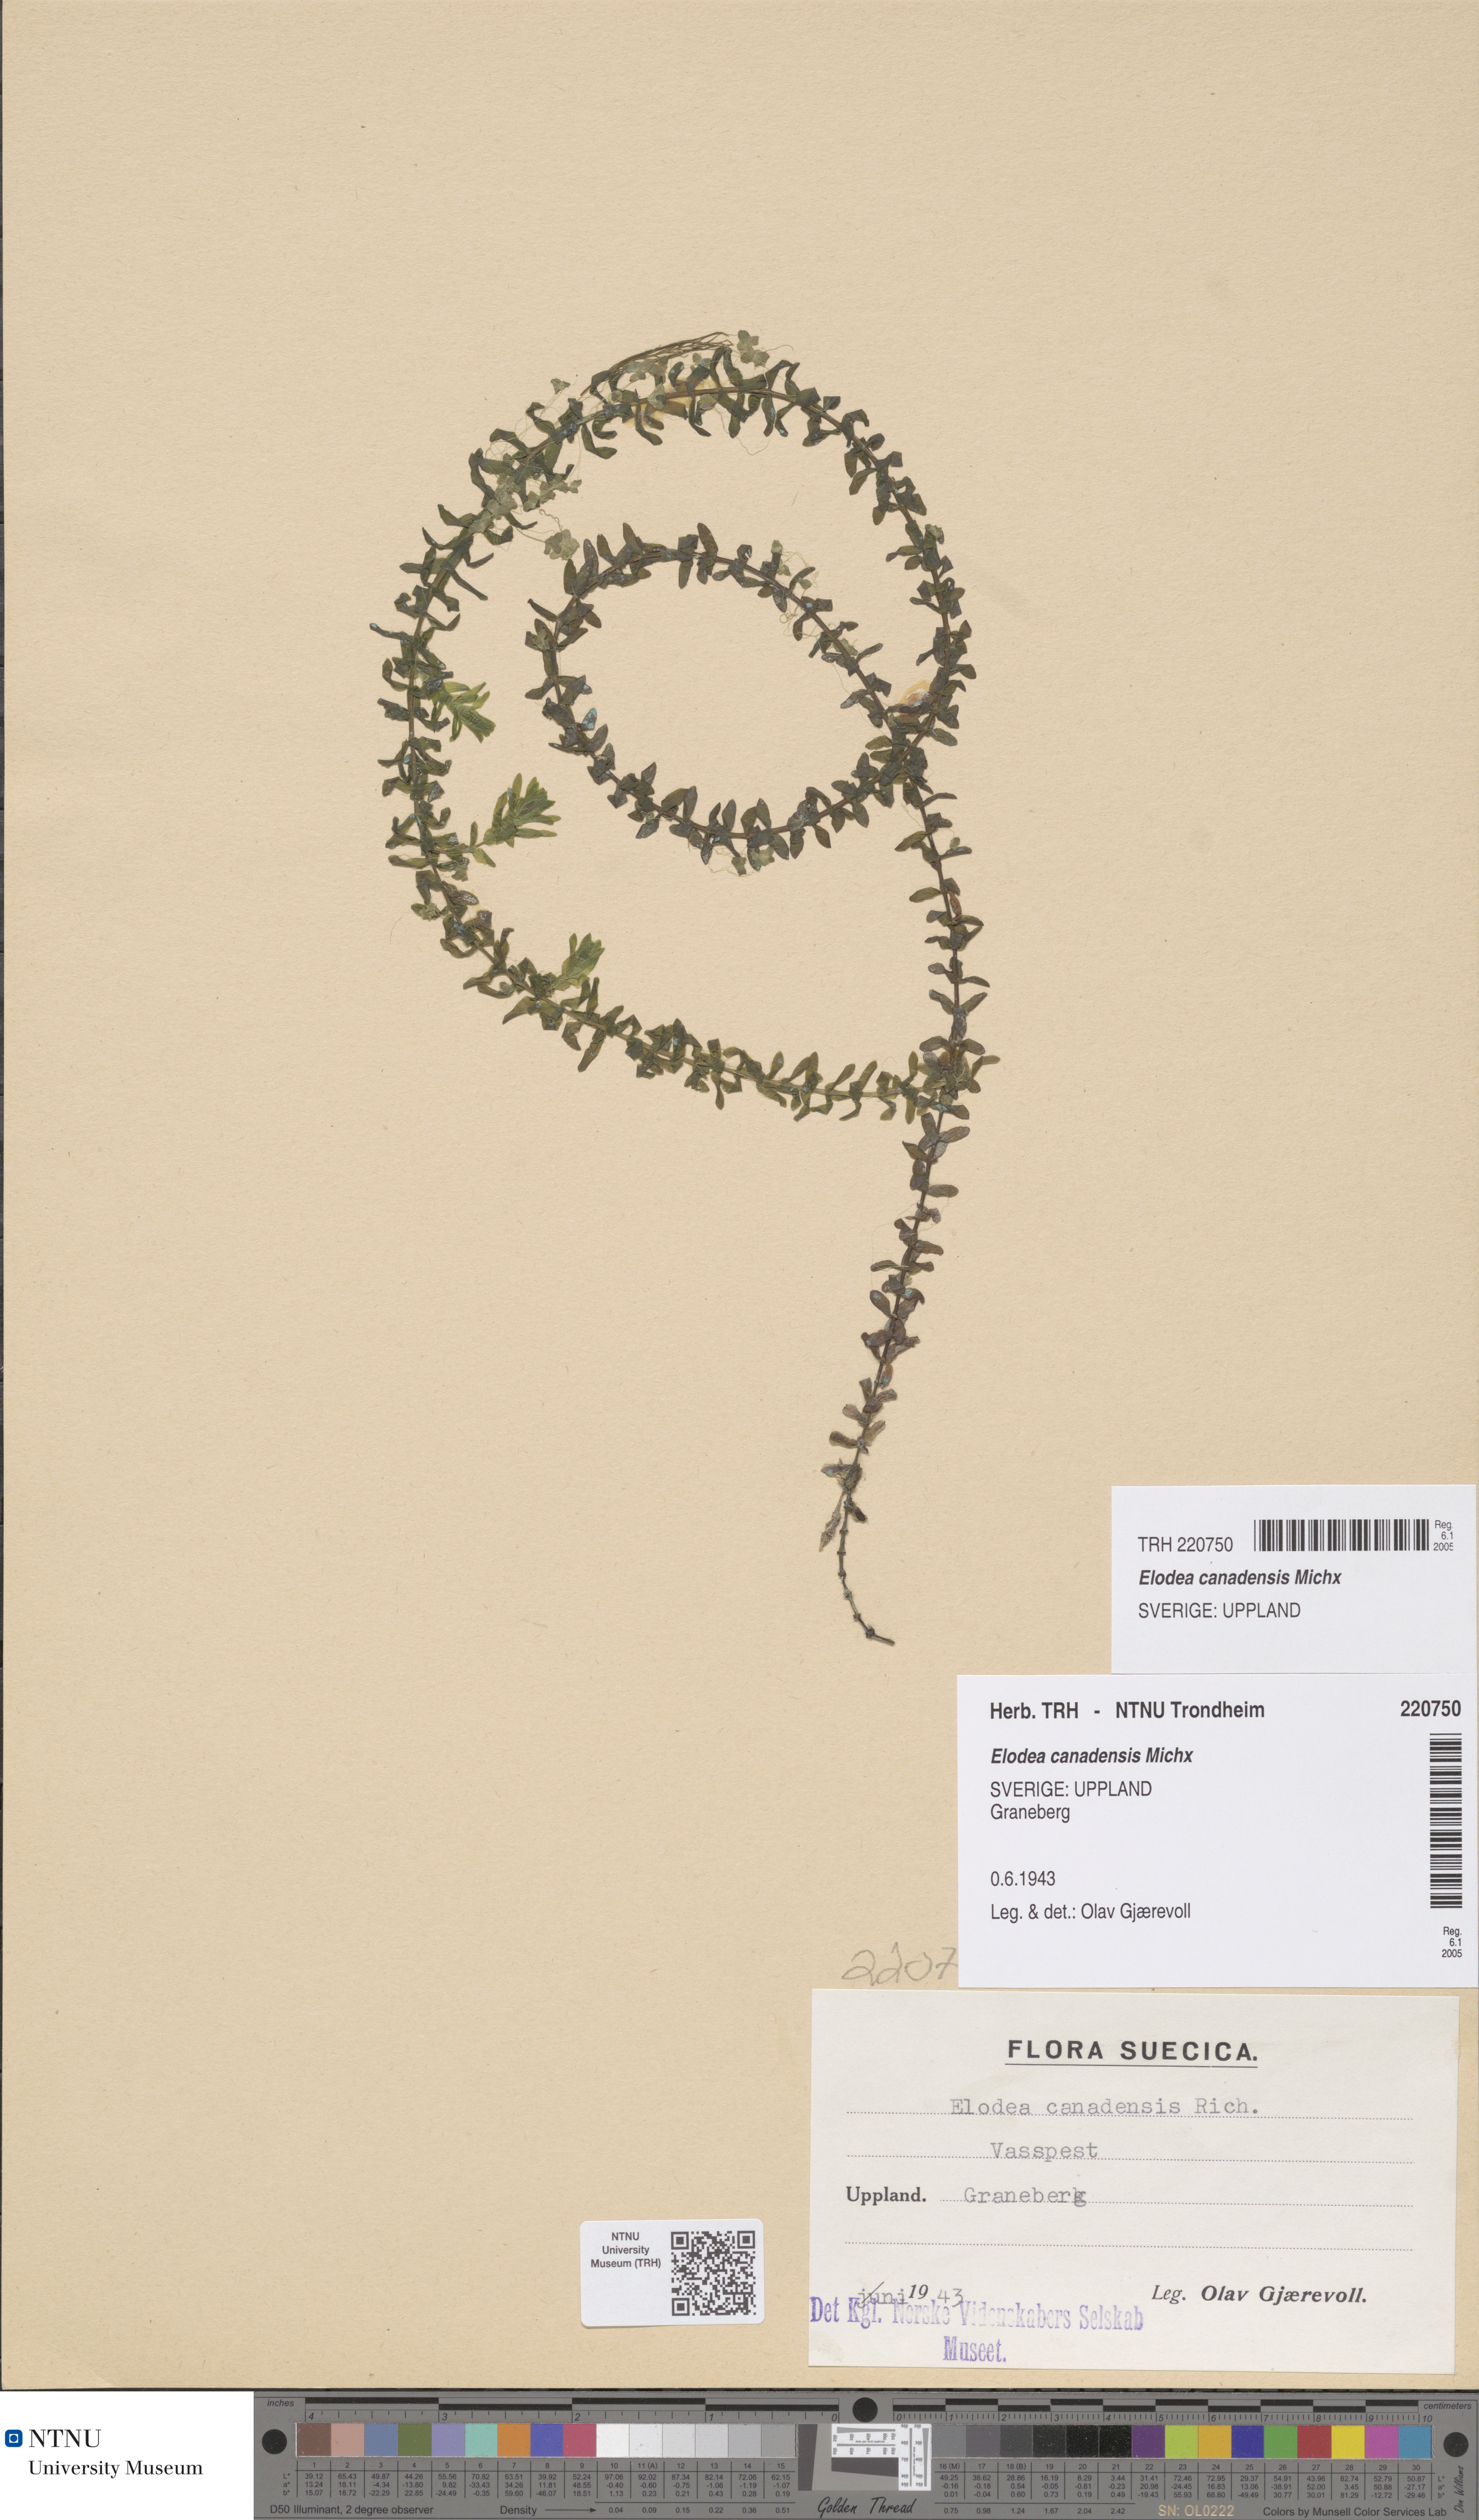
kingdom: Plantae
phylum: Tracheophyta
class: Liliopsida
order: Alismatales
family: Hydrocharitaceae
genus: Elodea
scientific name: Elodea canadensis
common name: Canadian waterweed
